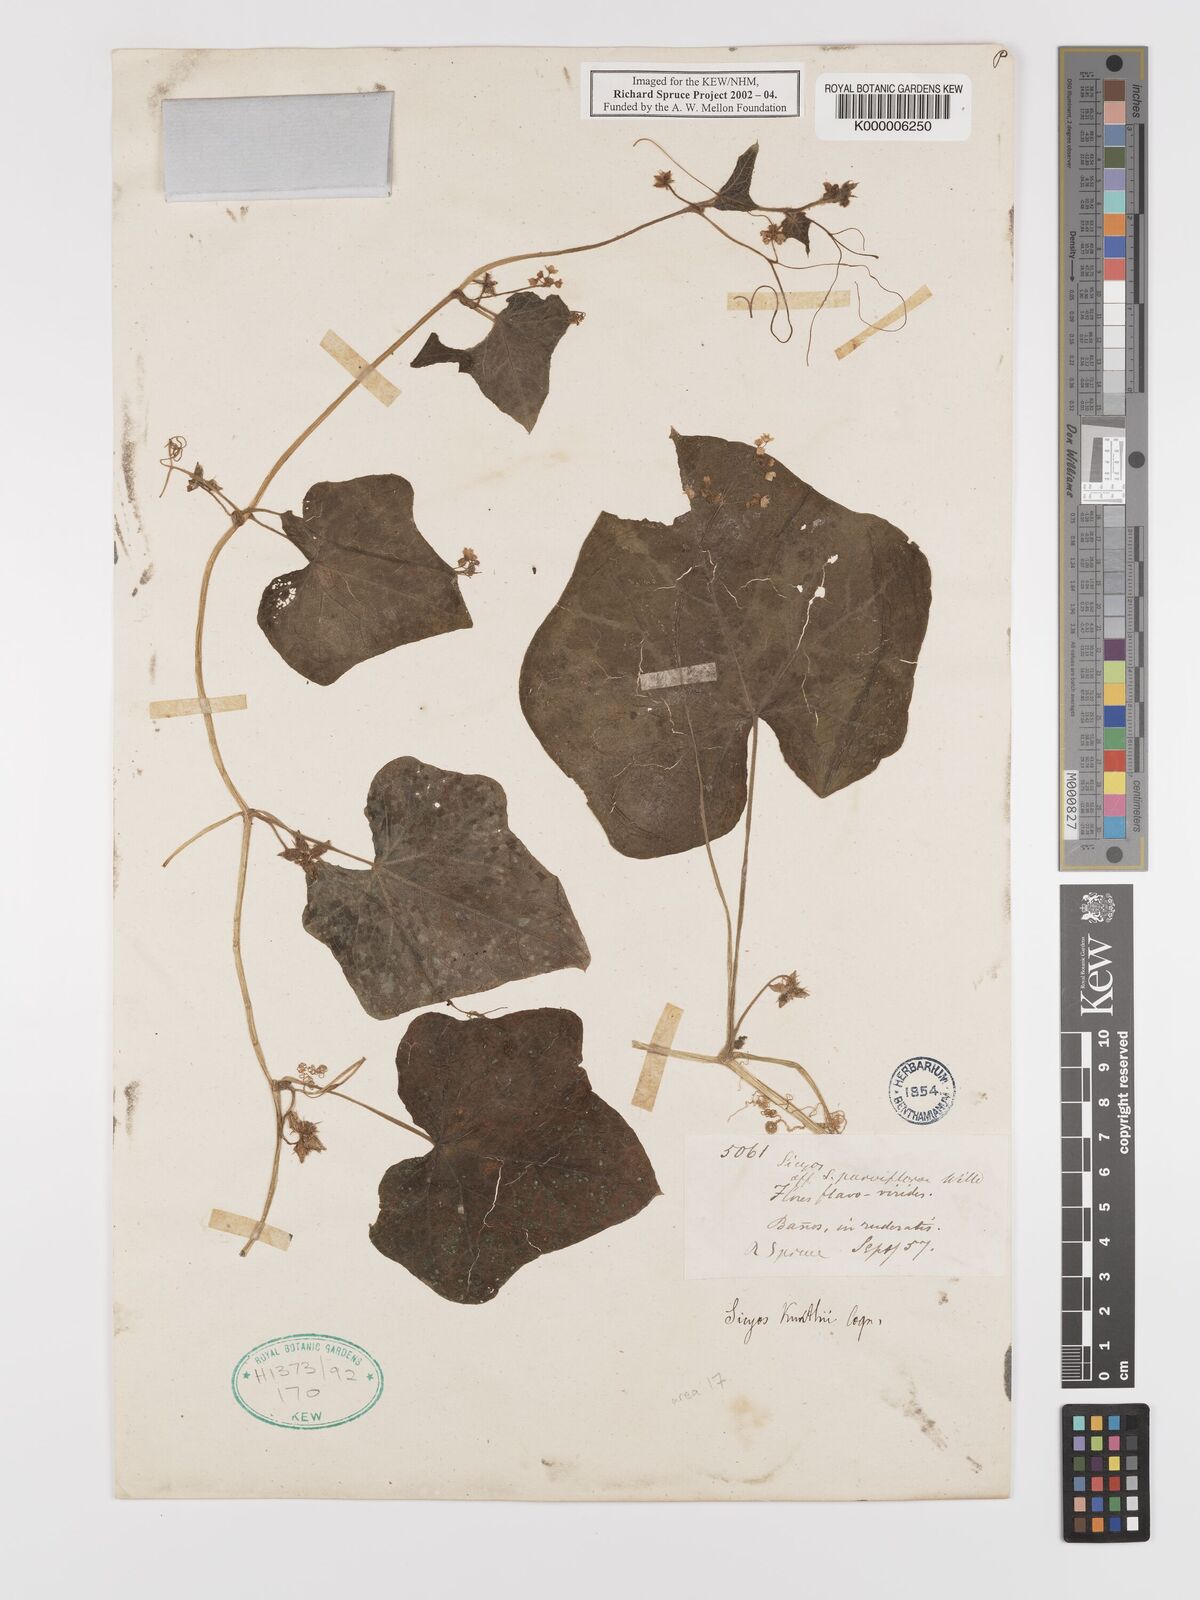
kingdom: Plantae
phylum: Tracheophyta
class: Magnoliopsida
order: Cucurbitales
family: Cucurbitaceae
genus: Sicyos
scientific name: Sicyos kunthii
